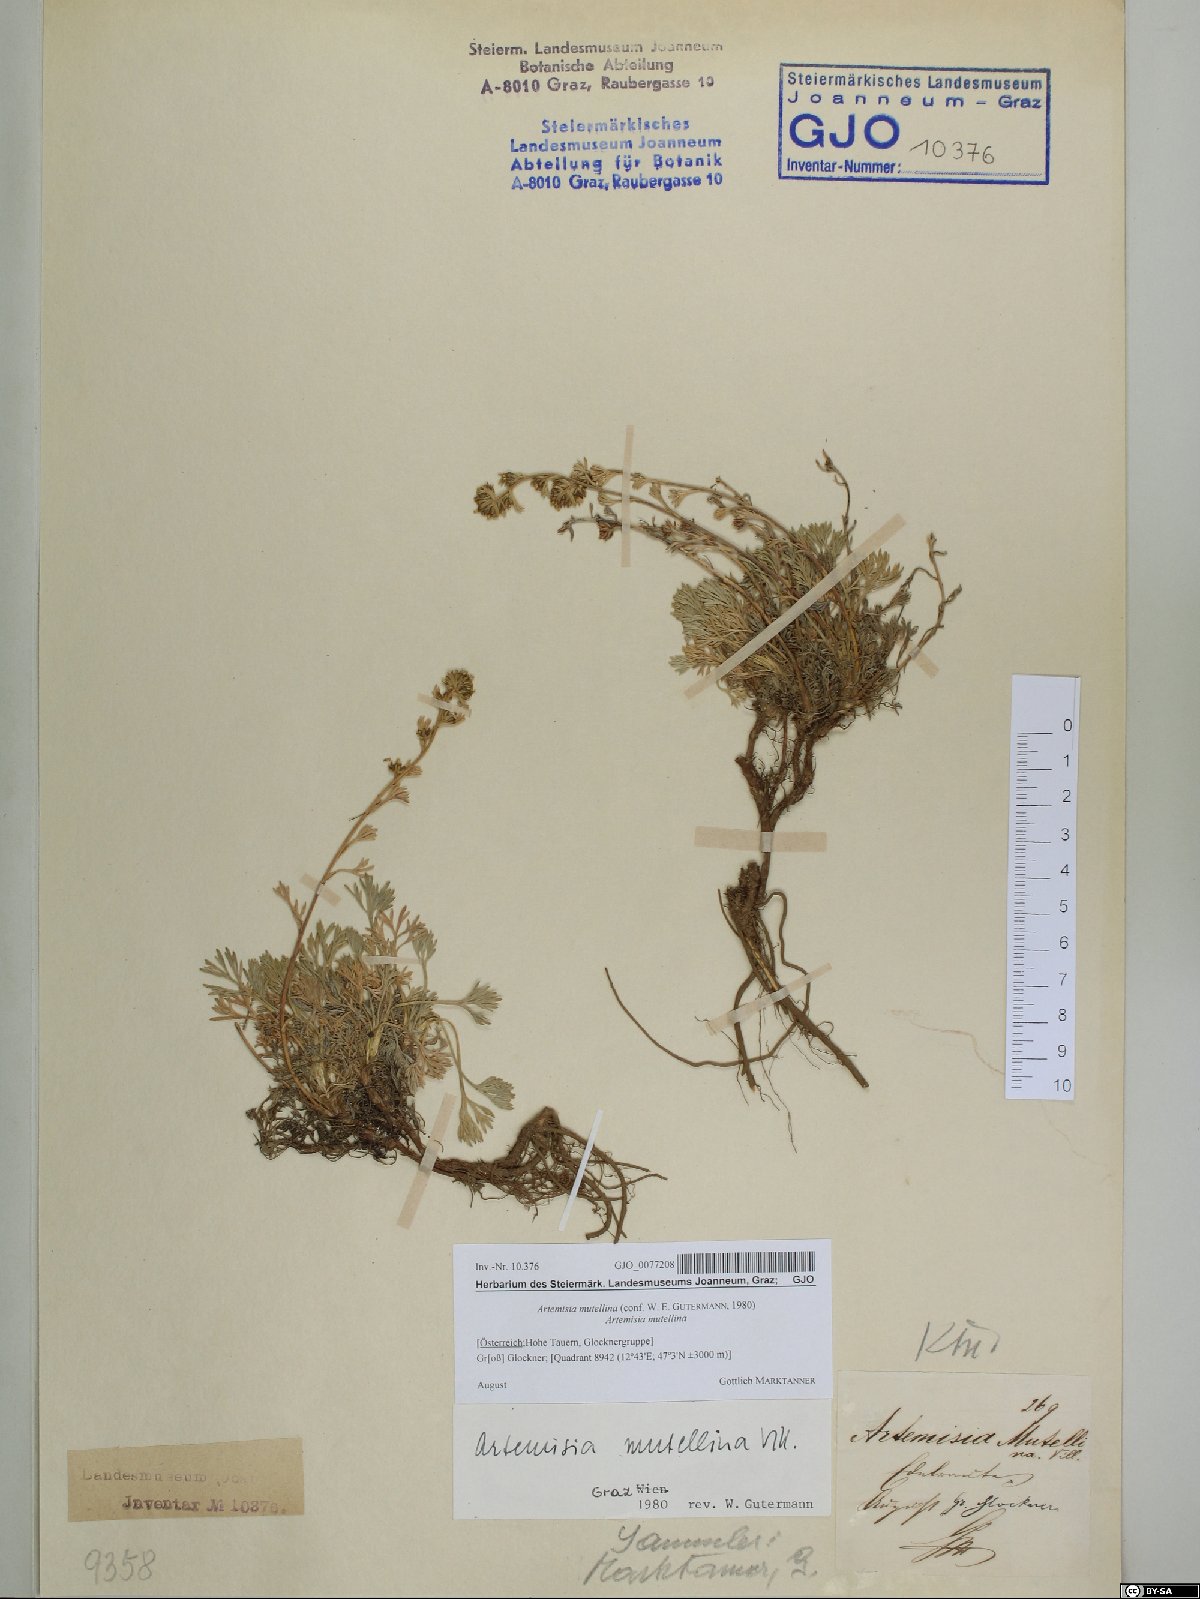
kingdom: Plantae
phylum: Tracheophyta
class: Magnoliopsida
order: Asterales
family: Asteraceae
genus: Artemisia
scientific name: Artemisia mutellina
